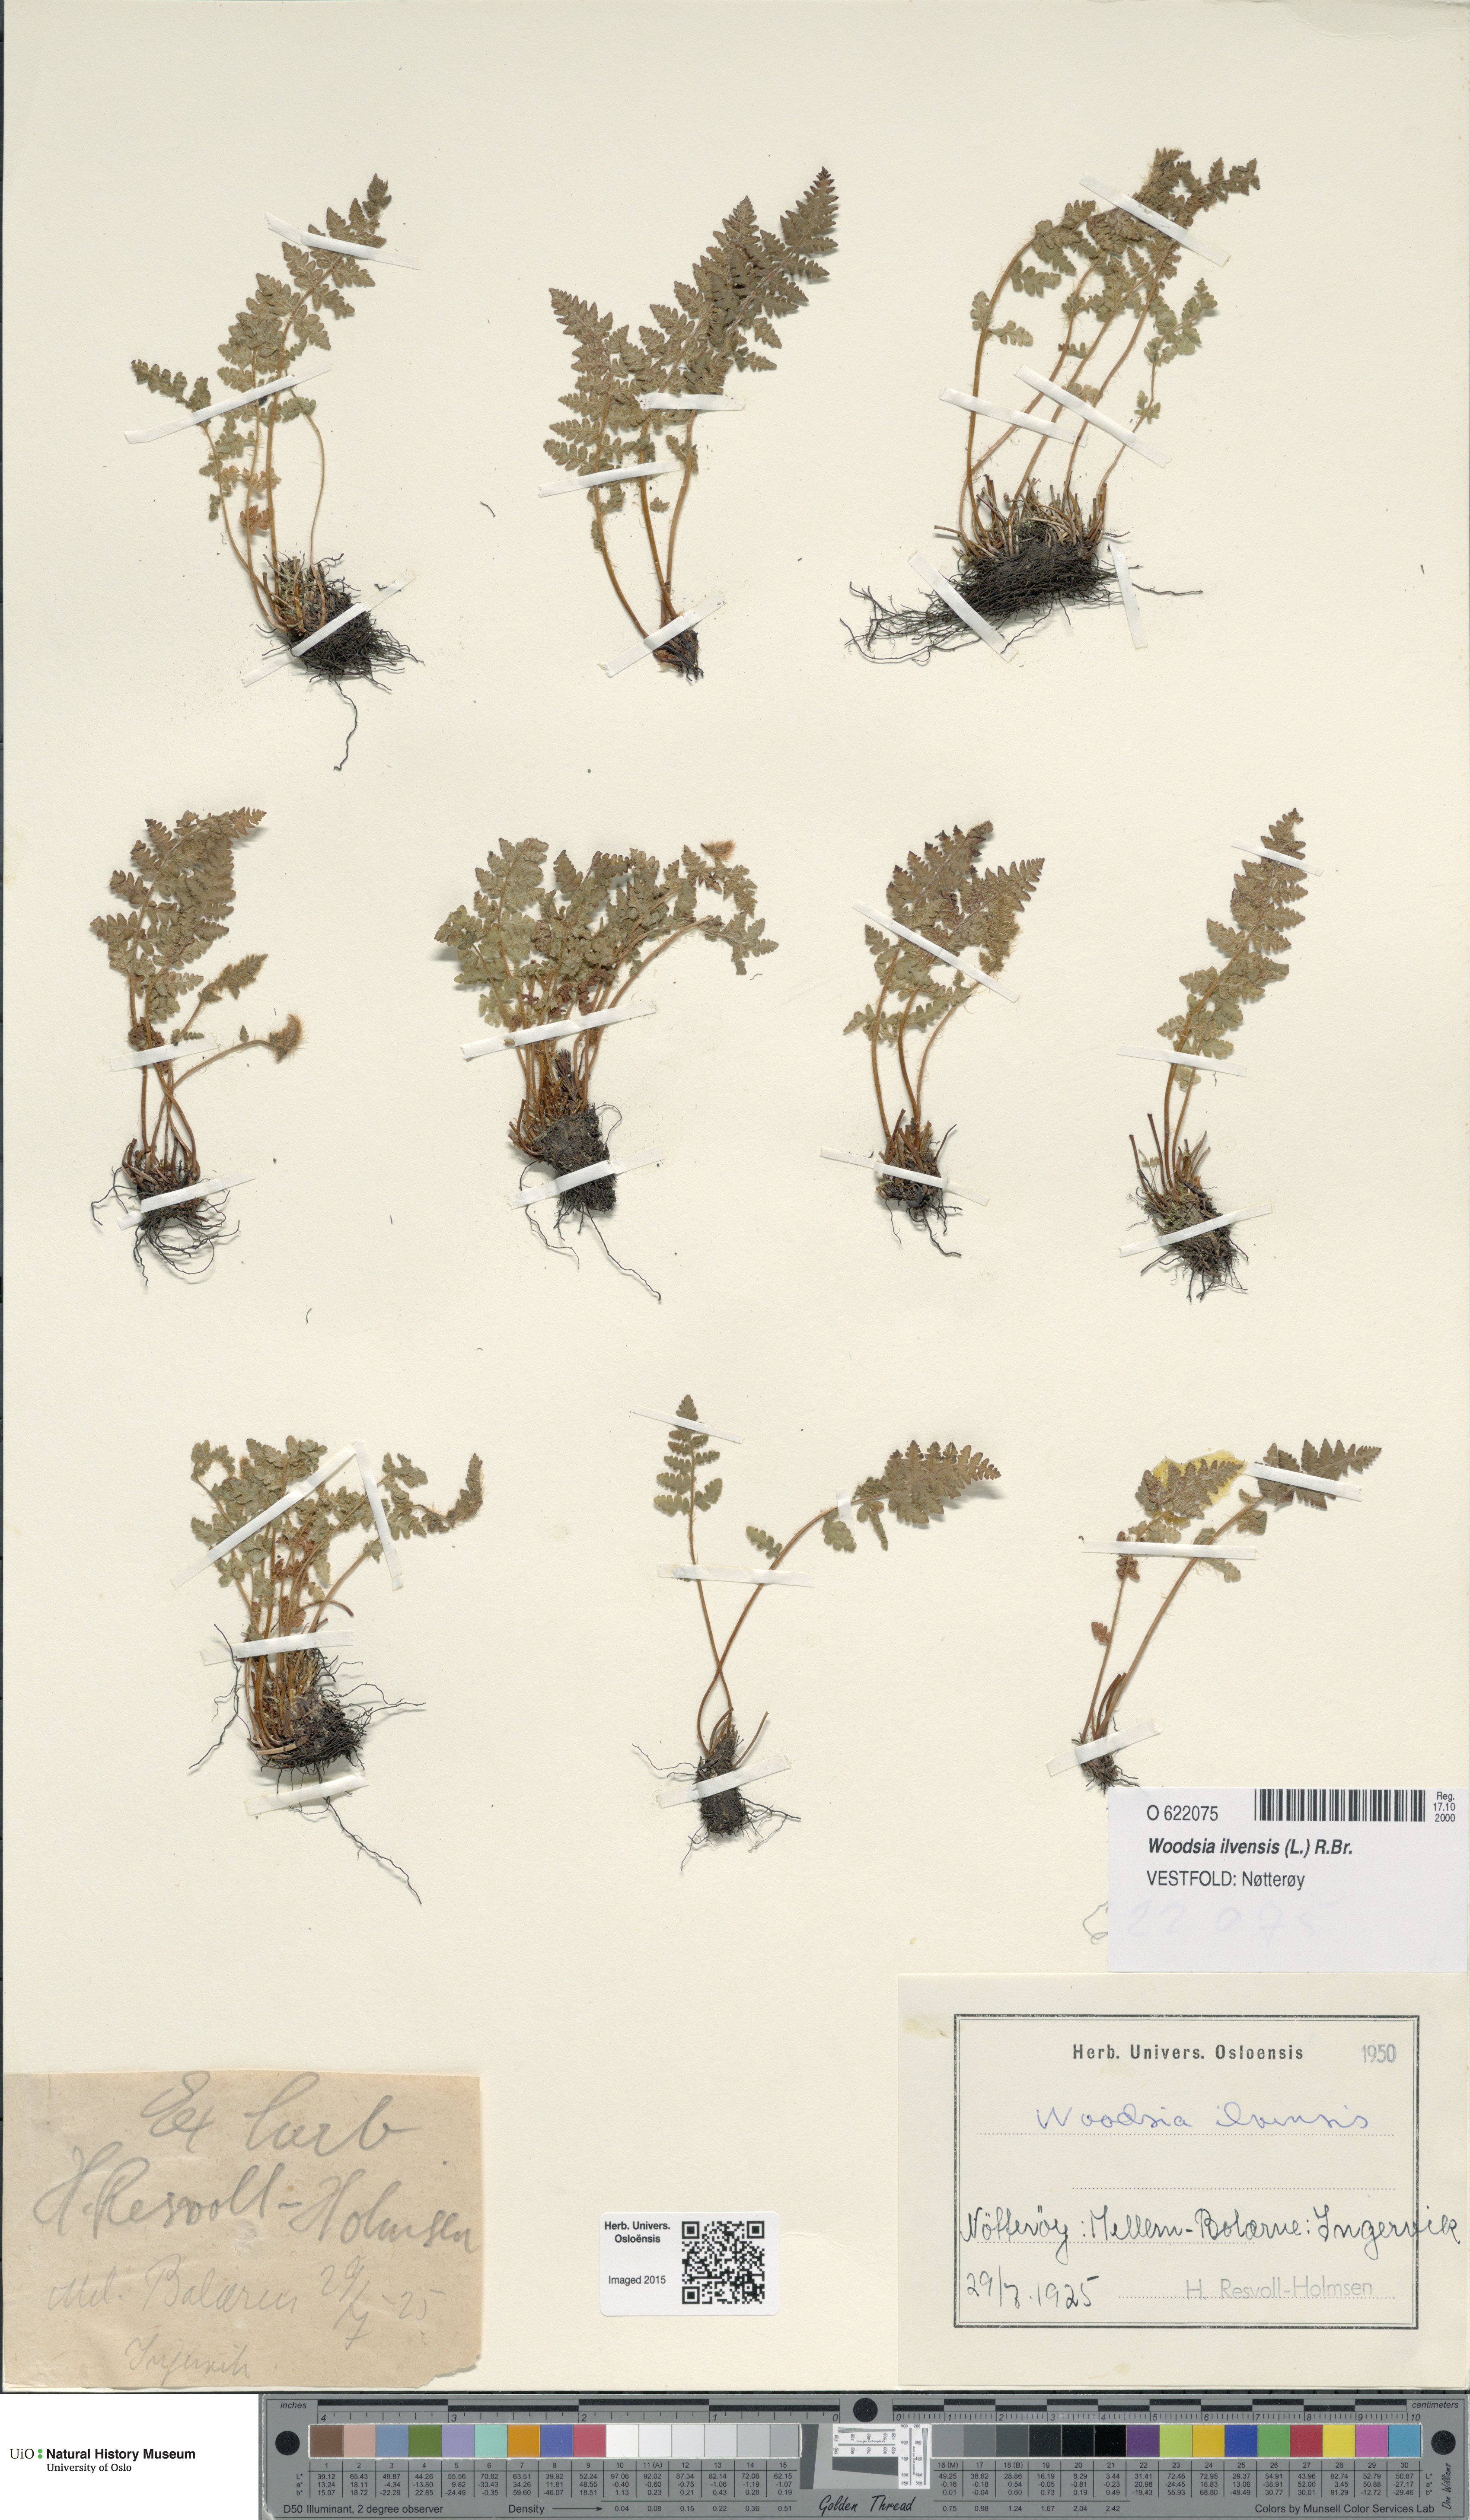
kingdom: Plantae
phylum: Tracheophyta
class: Polypodiopsida
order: Polypodiales
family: Woodsiaceae
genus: Woodsia
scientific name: Woodsia ilvensis
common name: Fragrant woodsia
